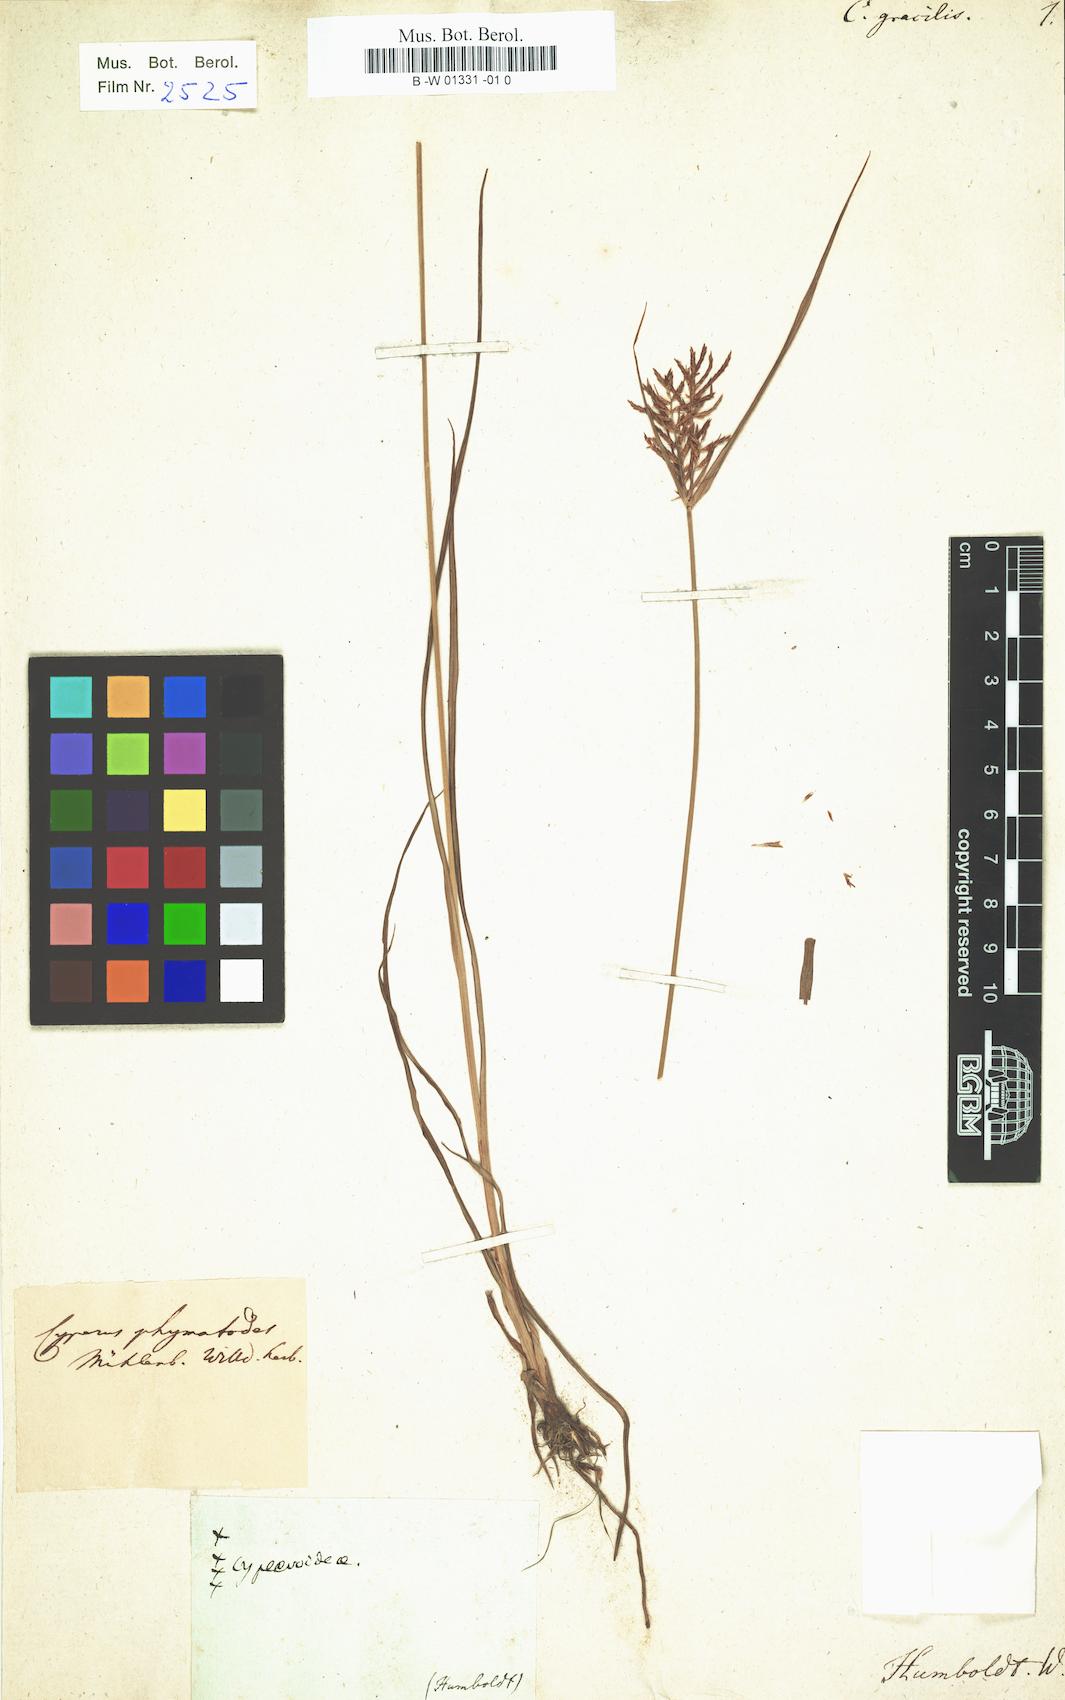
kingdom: Plantae
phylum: Tracheophyta
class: Liliopsida
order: Poales
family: Cyperaceae
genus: Cyperus
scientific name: Cyperus esculentus
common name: Yellow nutsedge
